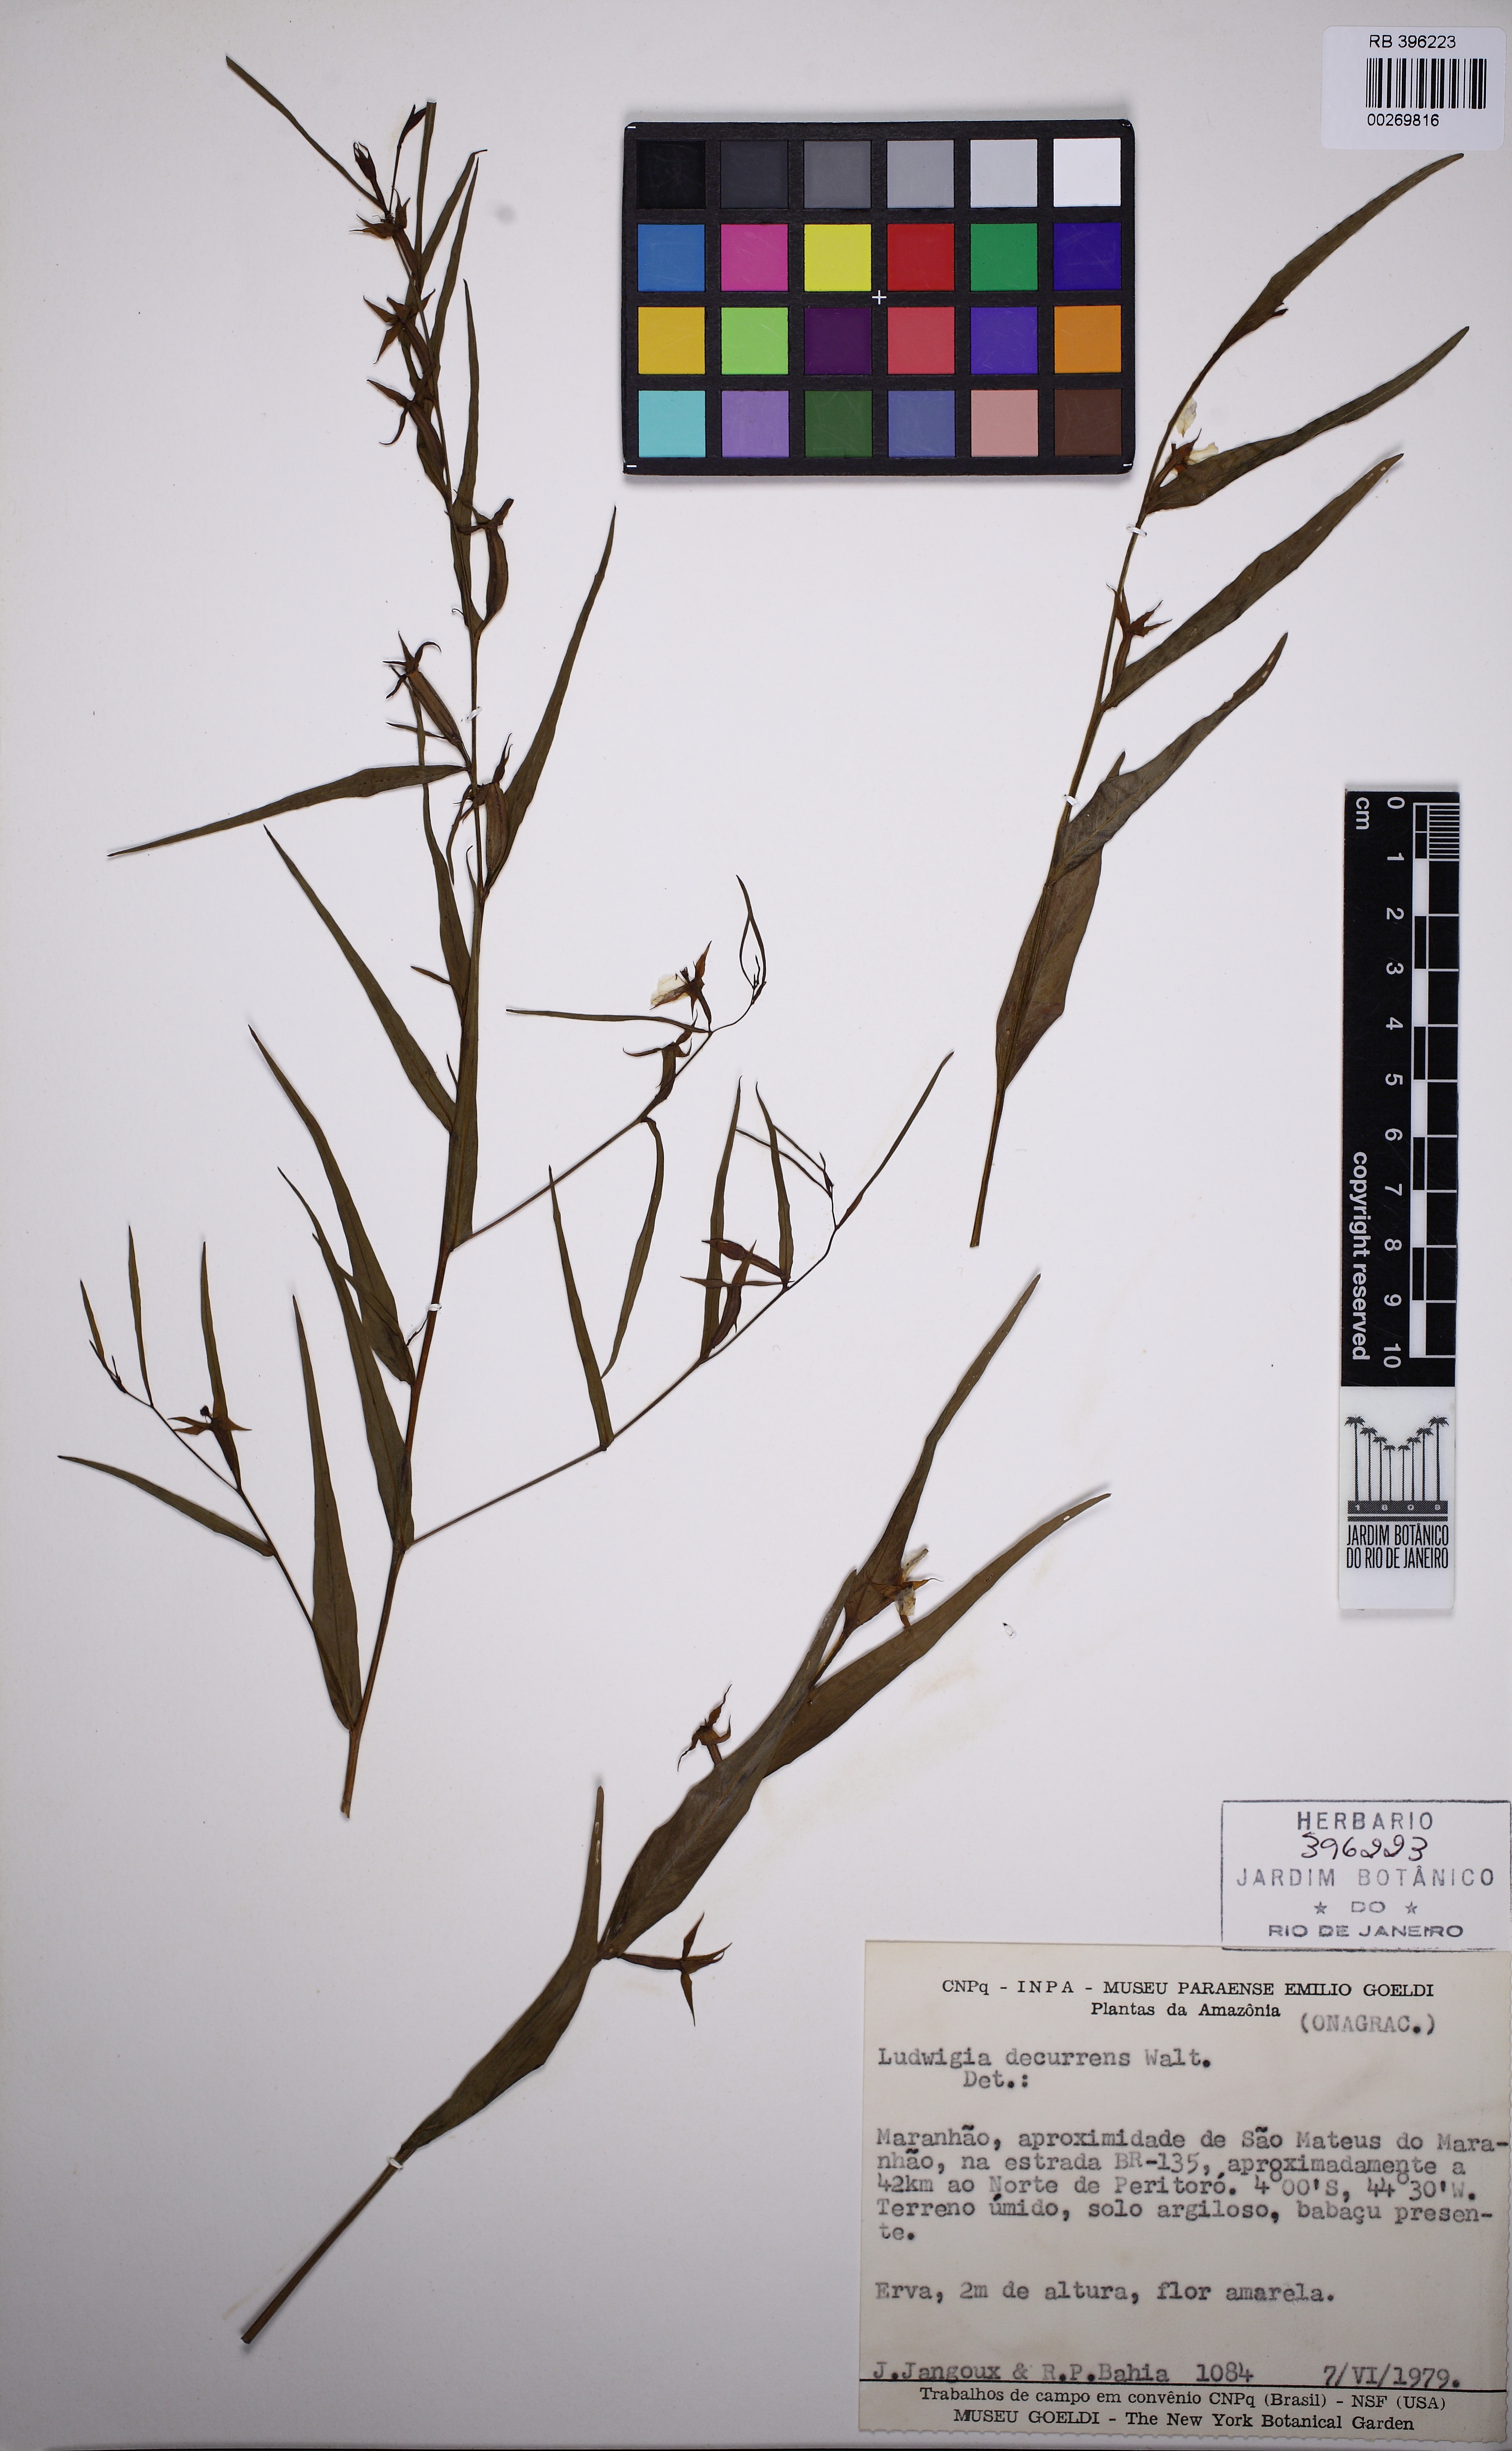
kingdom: Plantae
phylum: Tracheophyta
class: Magnoliopsida
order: Myrtales
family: Onagraceae
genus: Ludwigia
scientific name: Ludwigia decurrens
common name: Winged water-primrose
